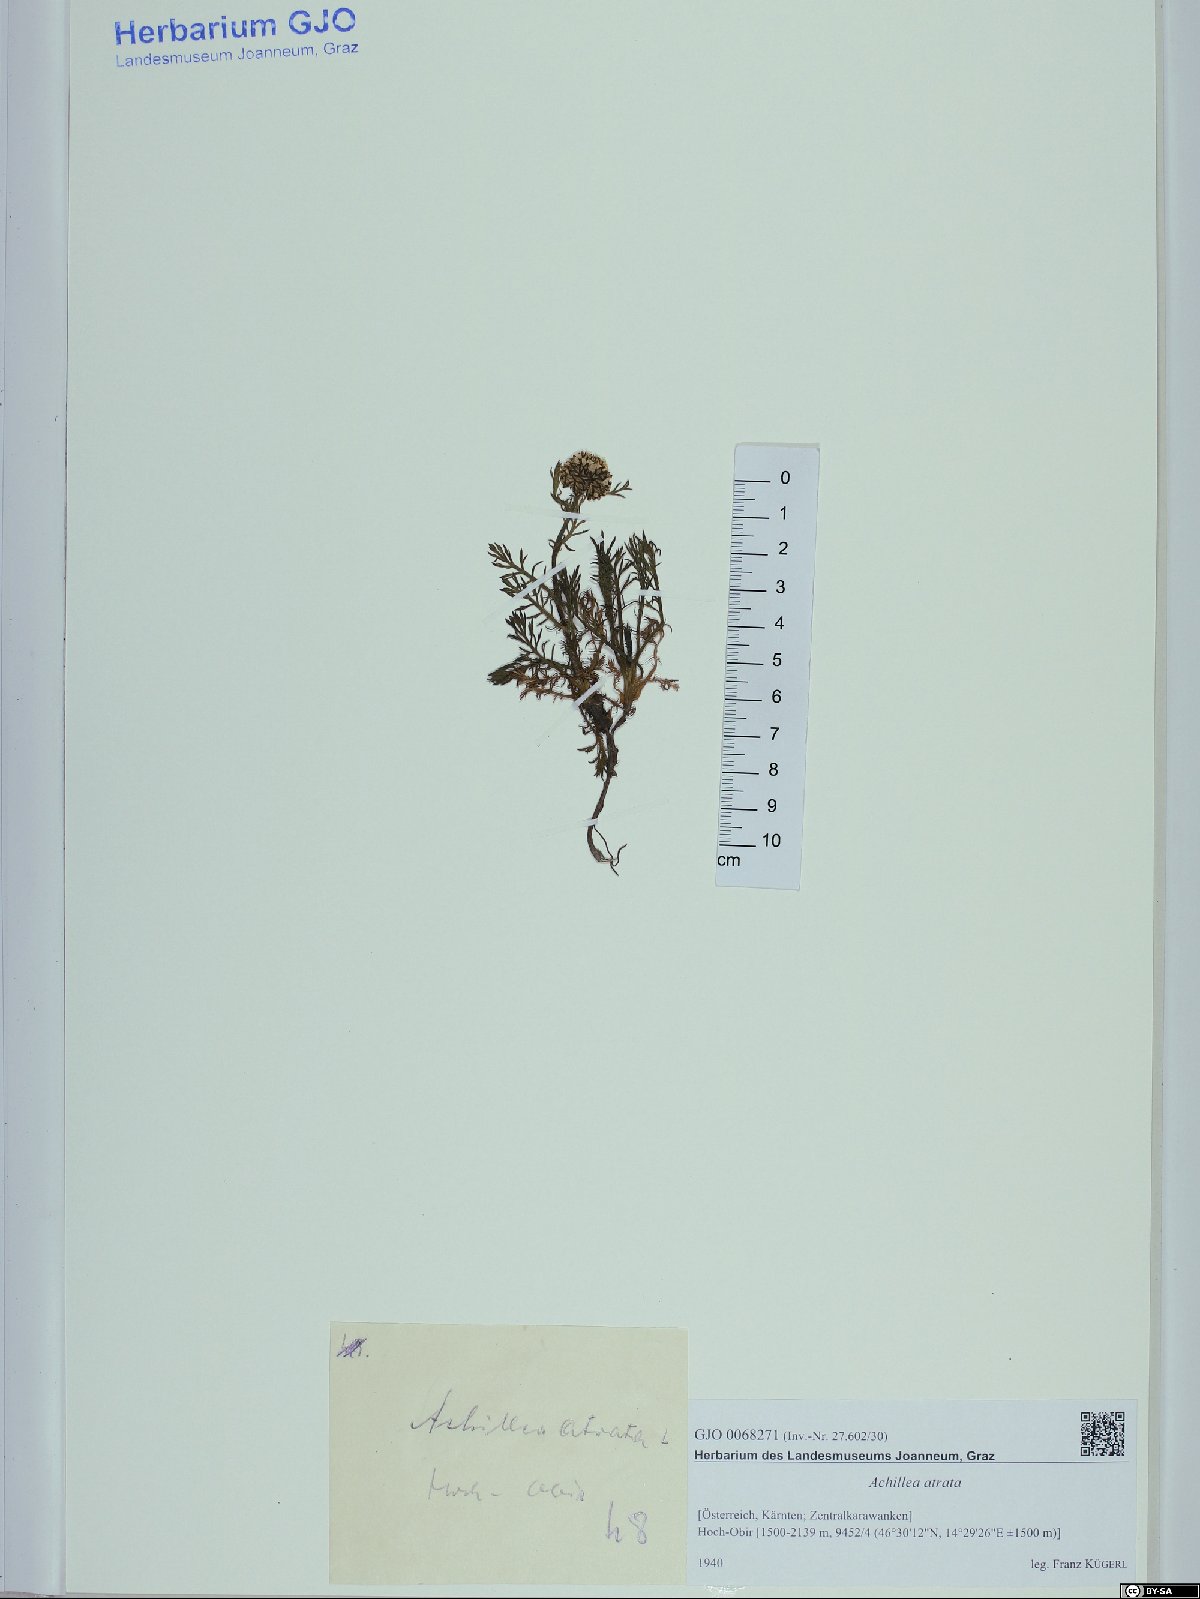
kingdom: Plantae
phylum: Tracheophyta
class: Magnoliopsida
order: Asterales
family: Asteraceae
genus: Achillea
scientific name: Achillea atrata
